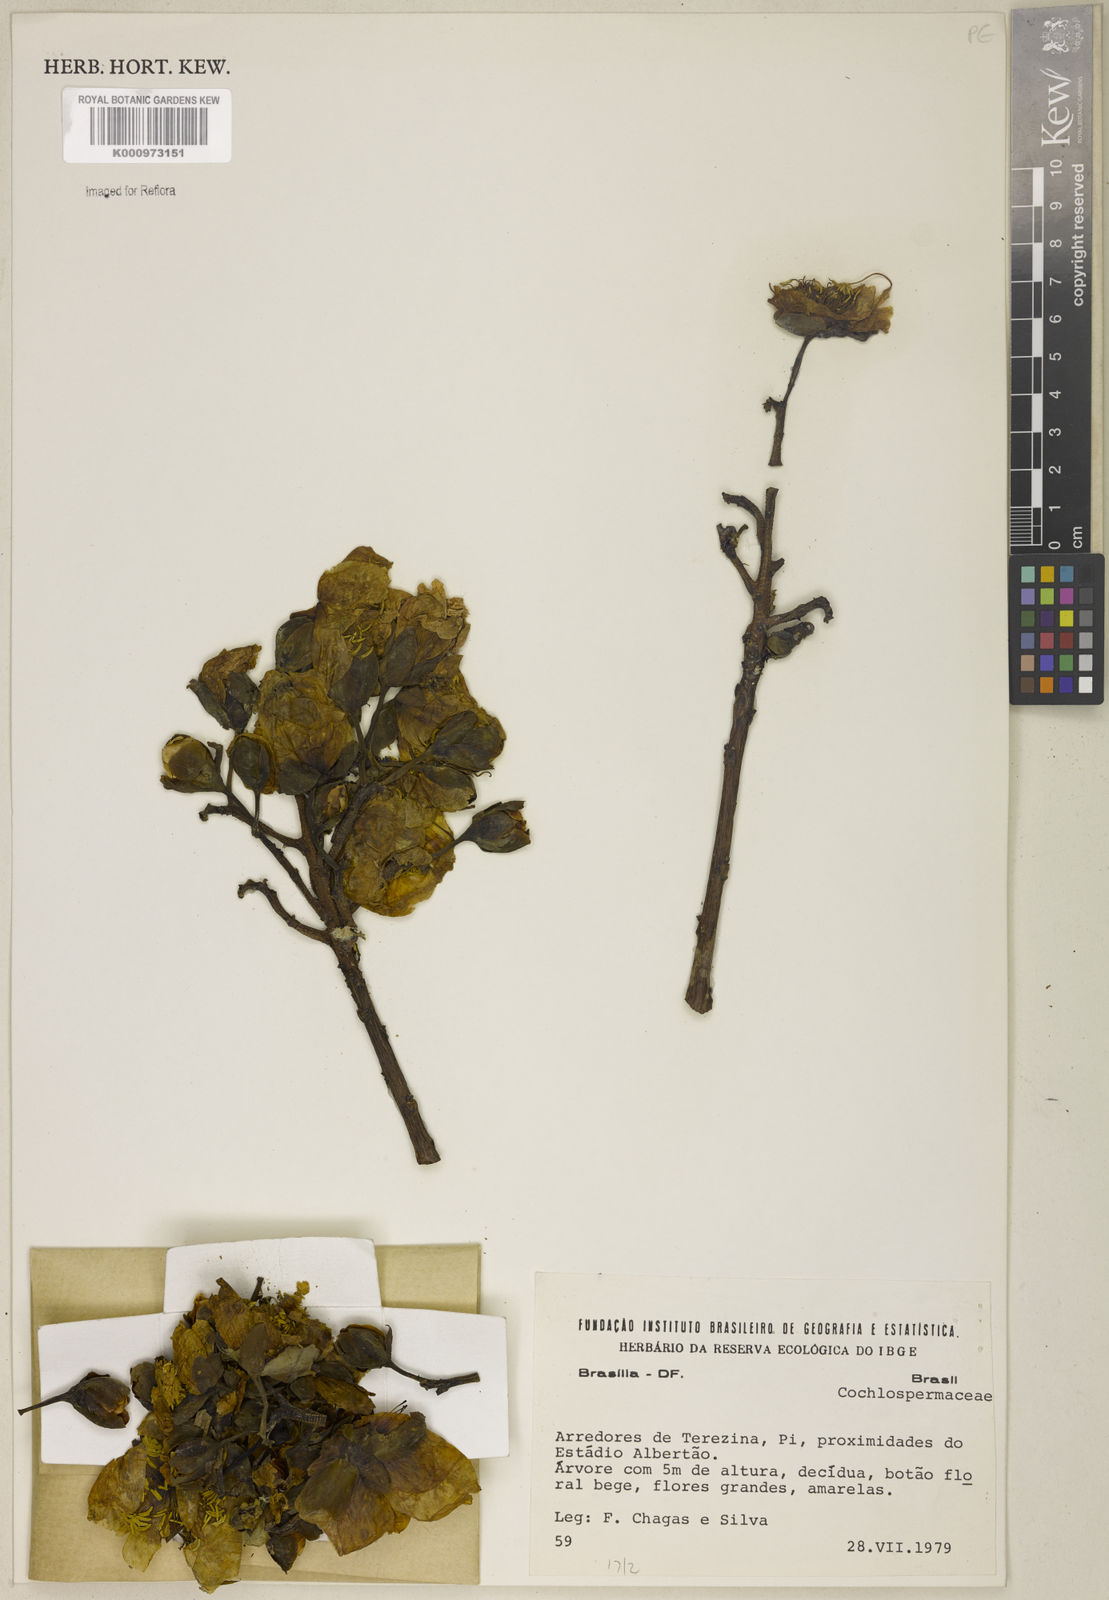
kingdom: Plantae
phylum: Tracheophyta
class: Magnoliopsida
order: Malvales
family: Cochlospermaceae
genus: Cochlospermum
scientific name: Cochlospermum orinocense
